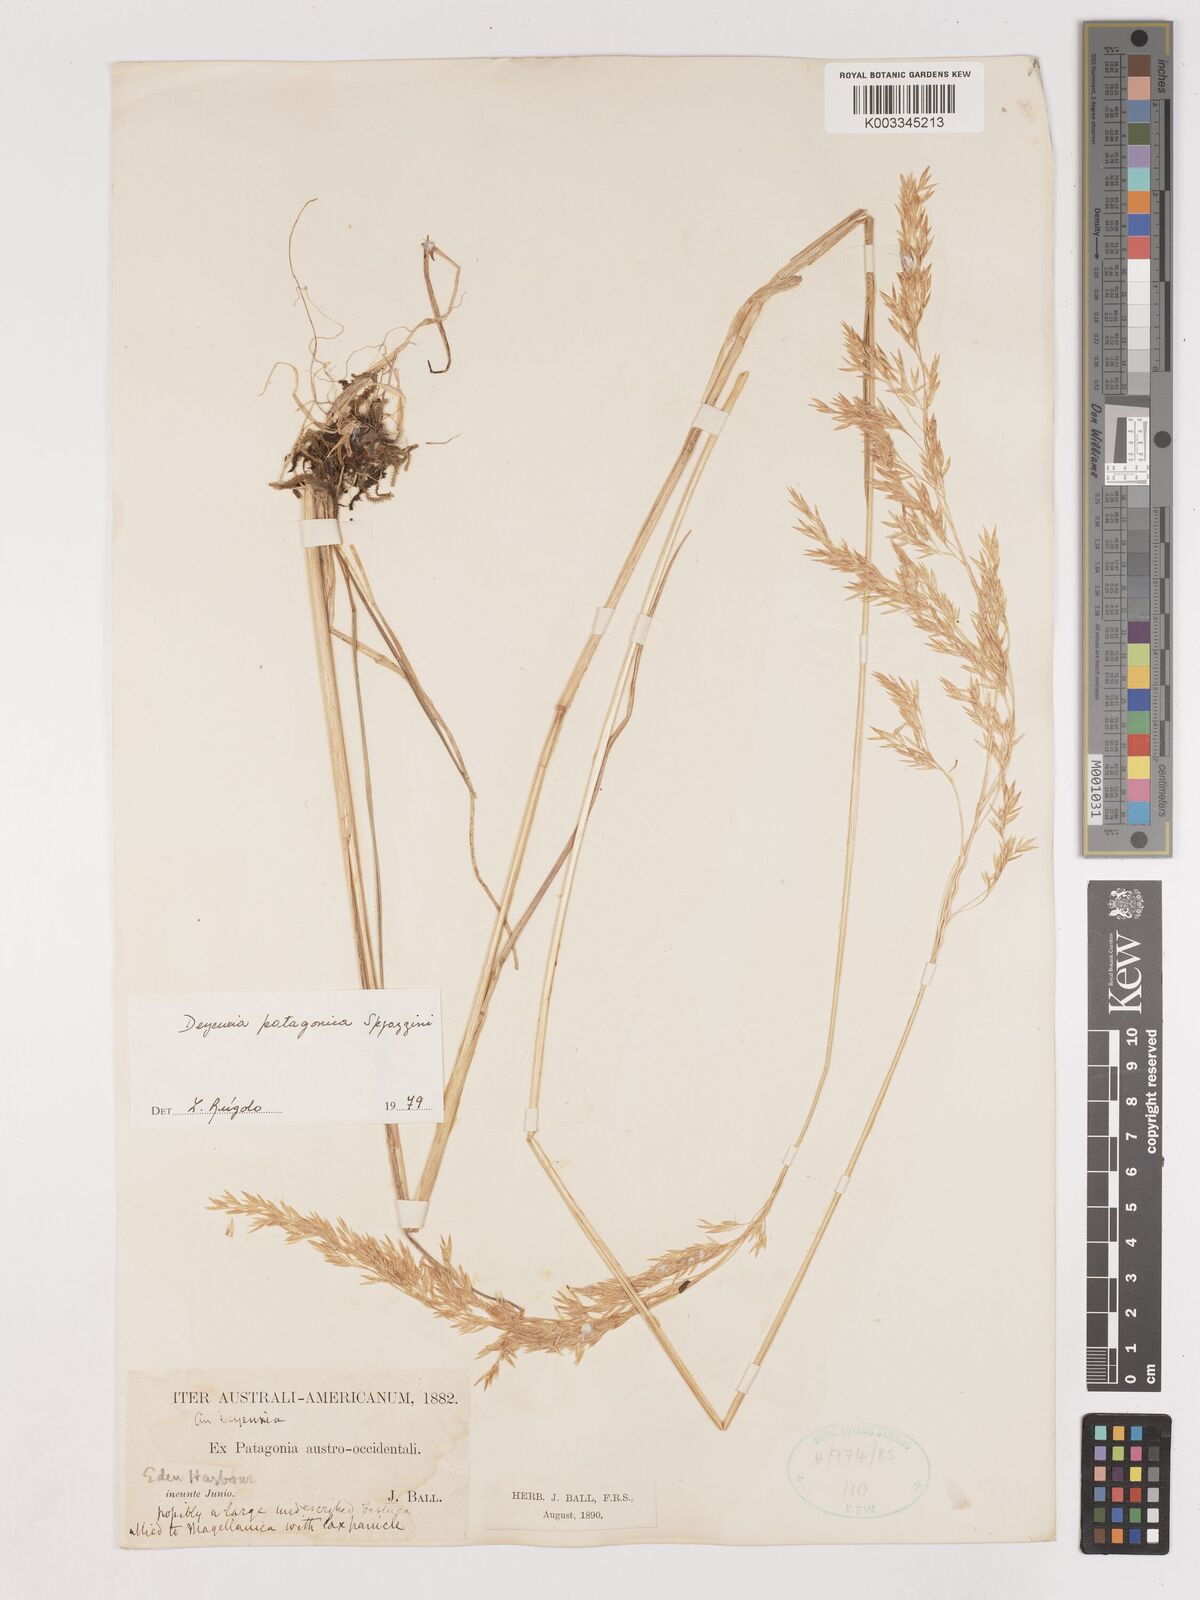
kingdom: Plantae
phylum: Tracheophyta
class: Liliopsida
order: Poales
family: Poaceae
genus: Cinnagrostis
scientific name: Cinnagrostis patagonica
